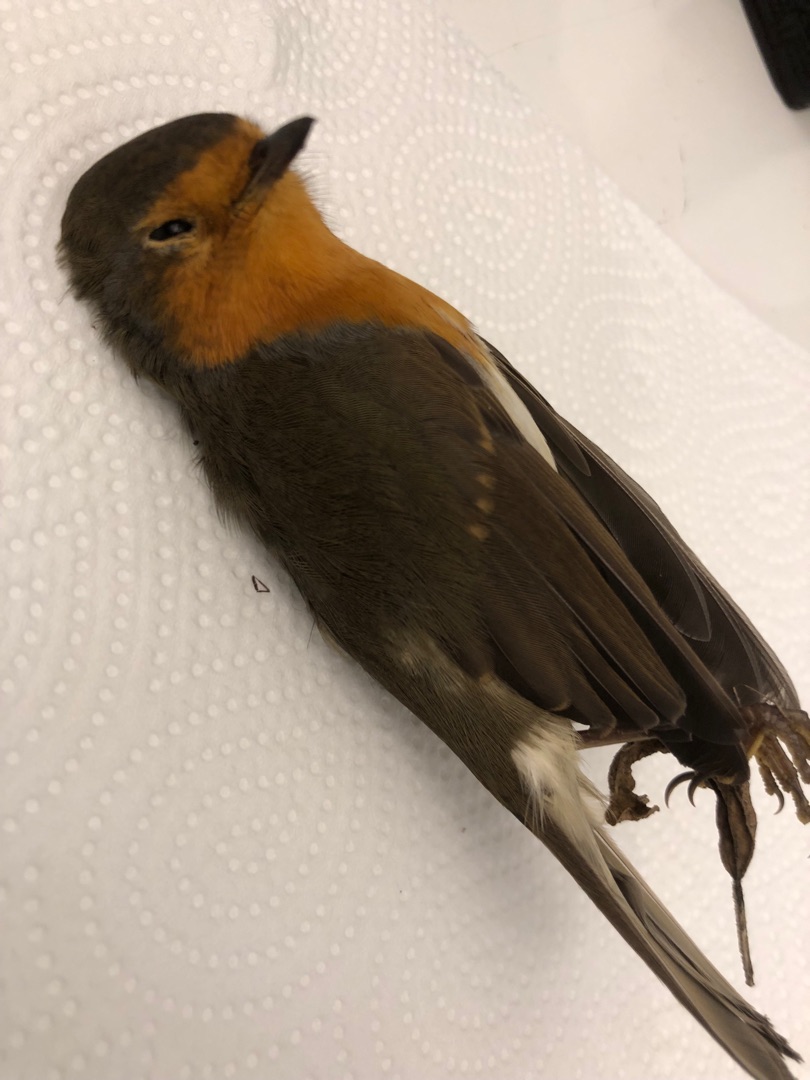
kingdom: Animalia
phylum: Chordata
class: Aves
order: Passeriformes
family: Muscicapidae
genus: Erithacus
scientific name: Erithacus rubecula
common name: Rødhals/rødkælk
